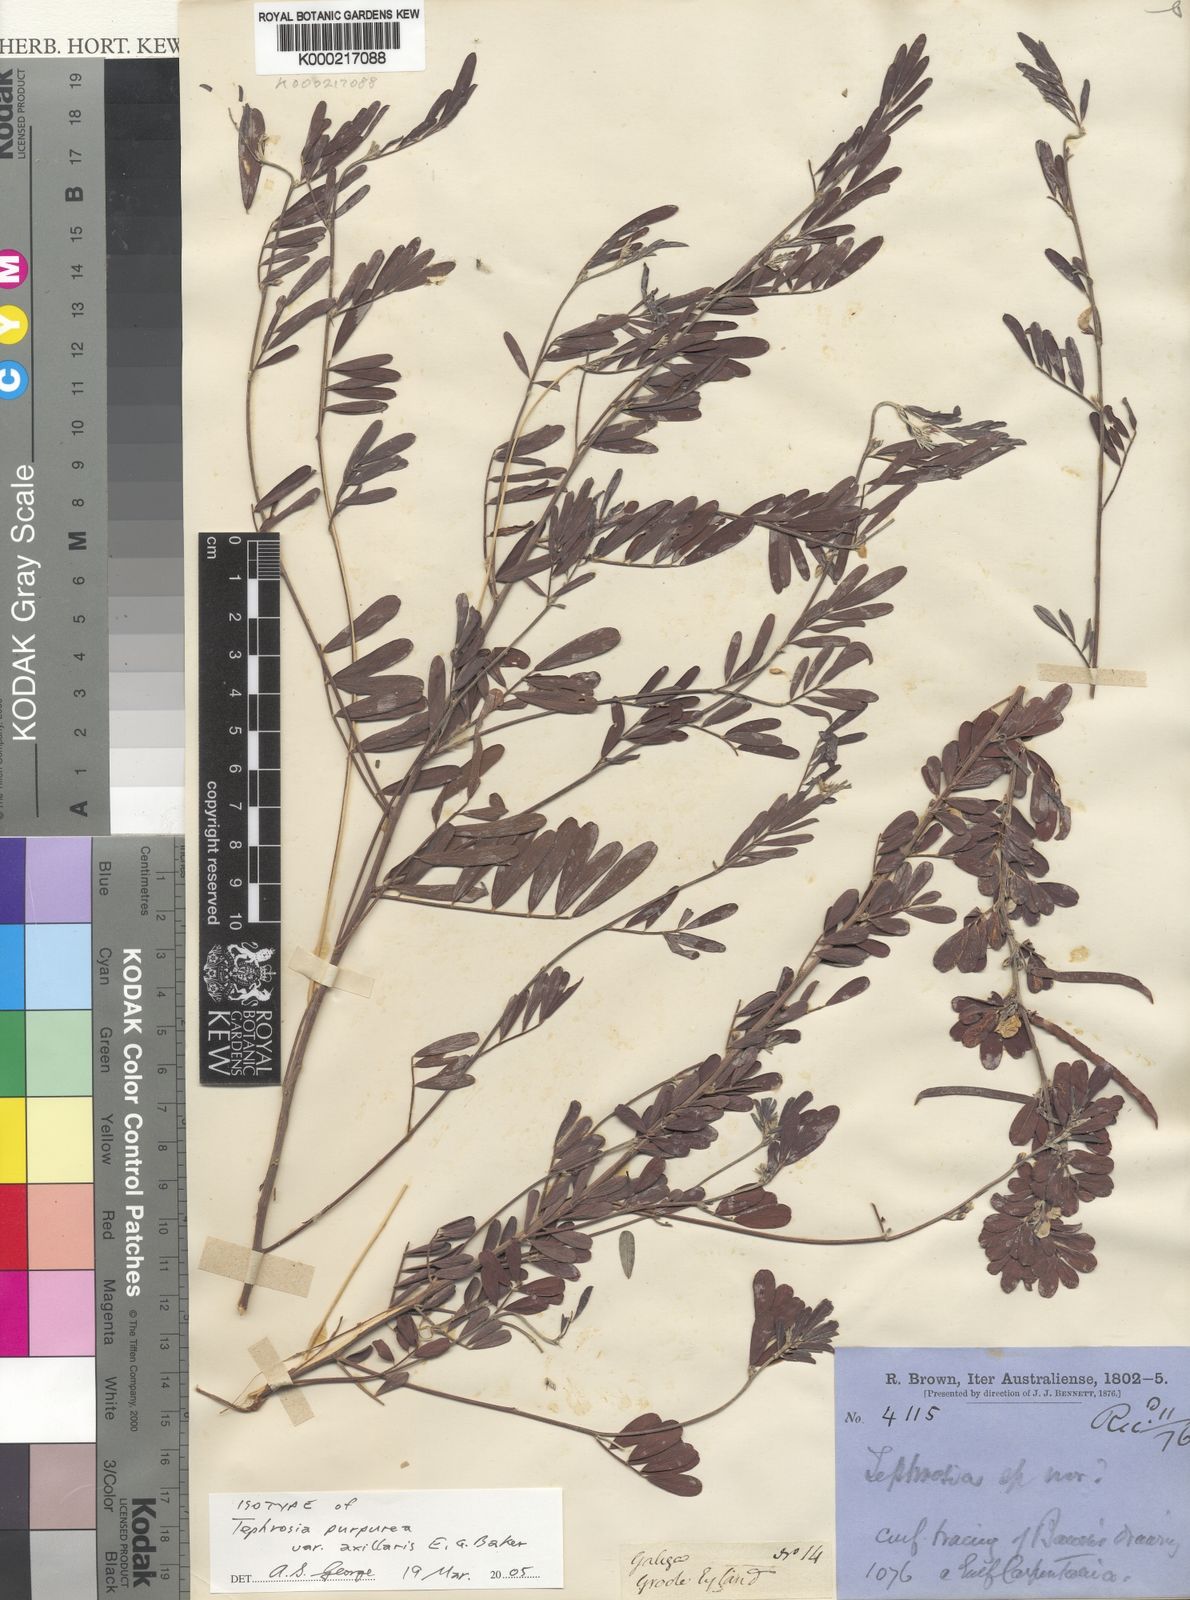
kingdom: Plantae
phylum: Tracheophyta
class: Magnoliopsida
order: Fabales
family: Fabaceae
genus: Tephrosia
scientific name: Tephrosia spechtii
